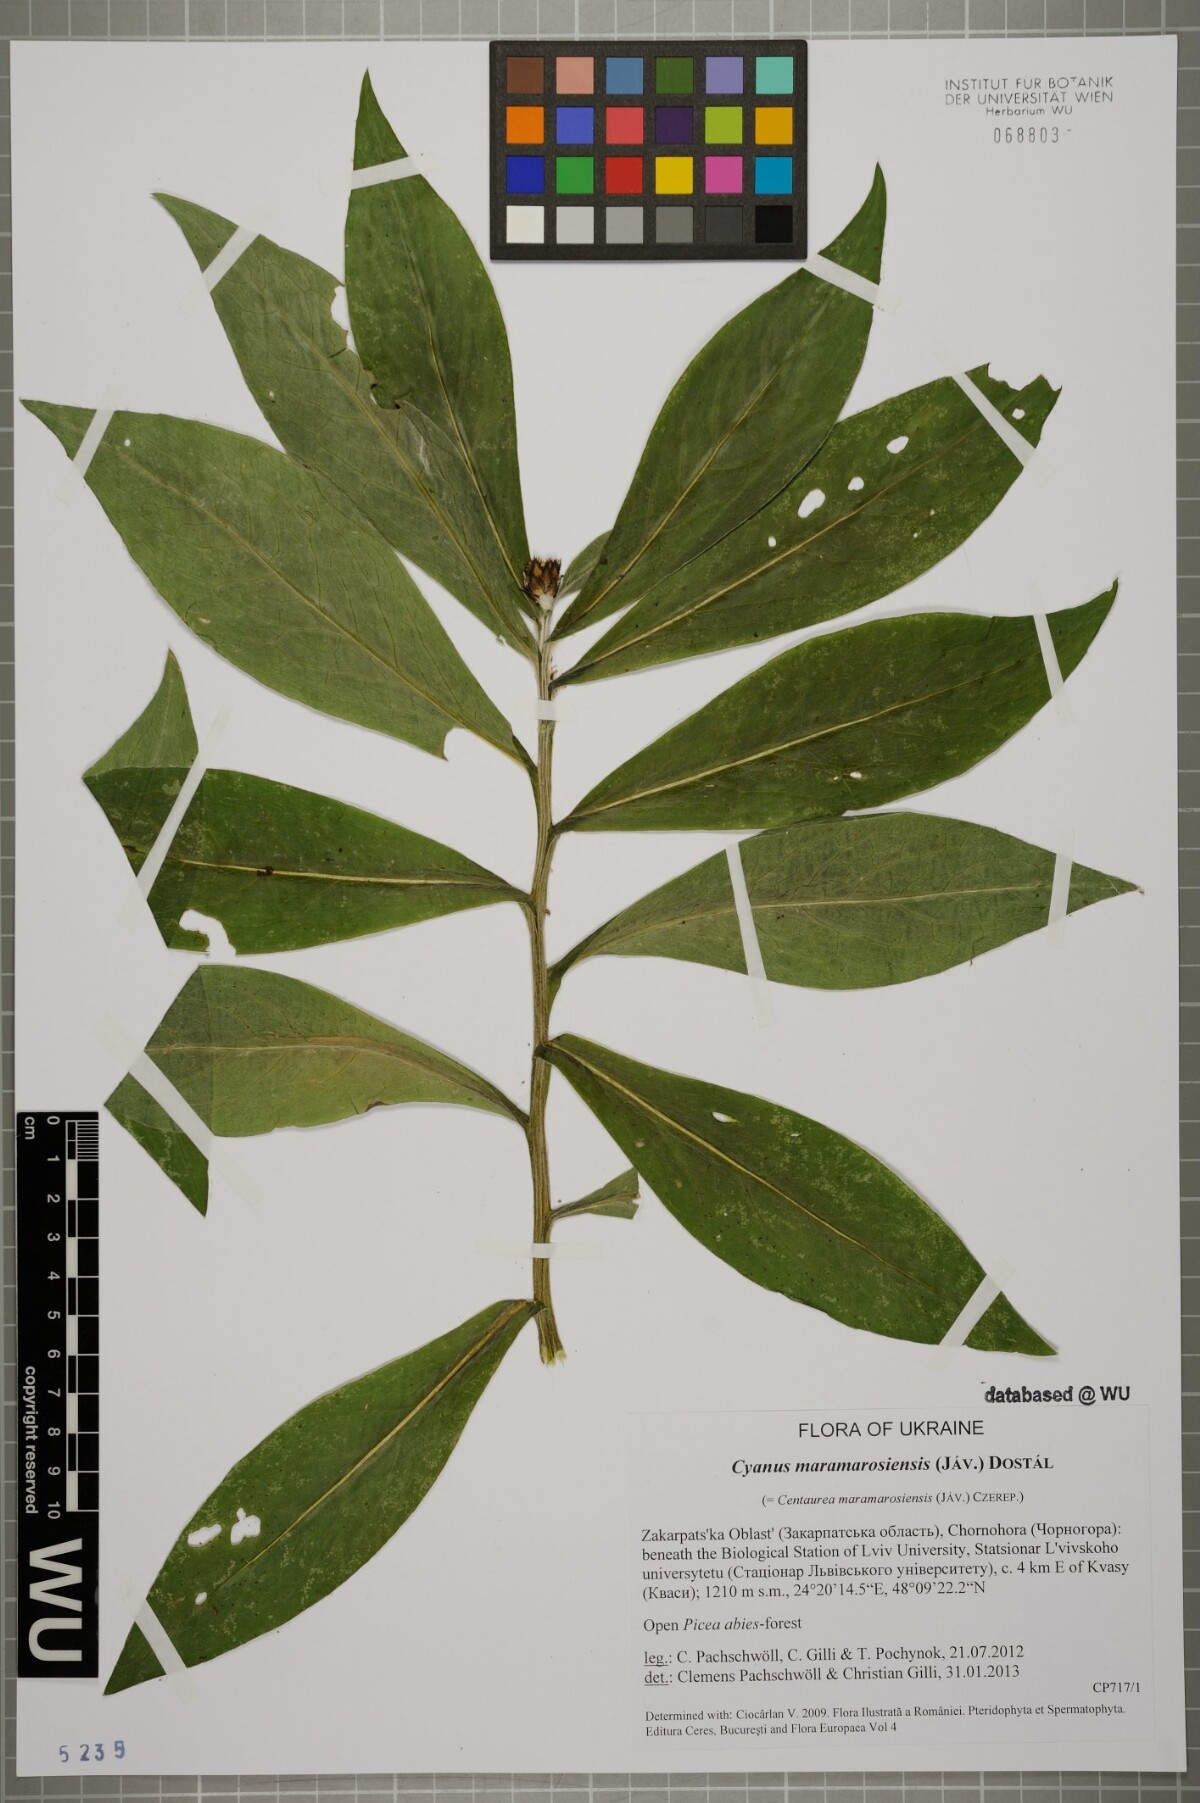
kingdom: Plantae
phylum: Tracheophyta
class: Magnoliopsida
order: Asterales
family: Asteraceae
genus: Centaurea
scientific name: Centaurea maramarosiensis
